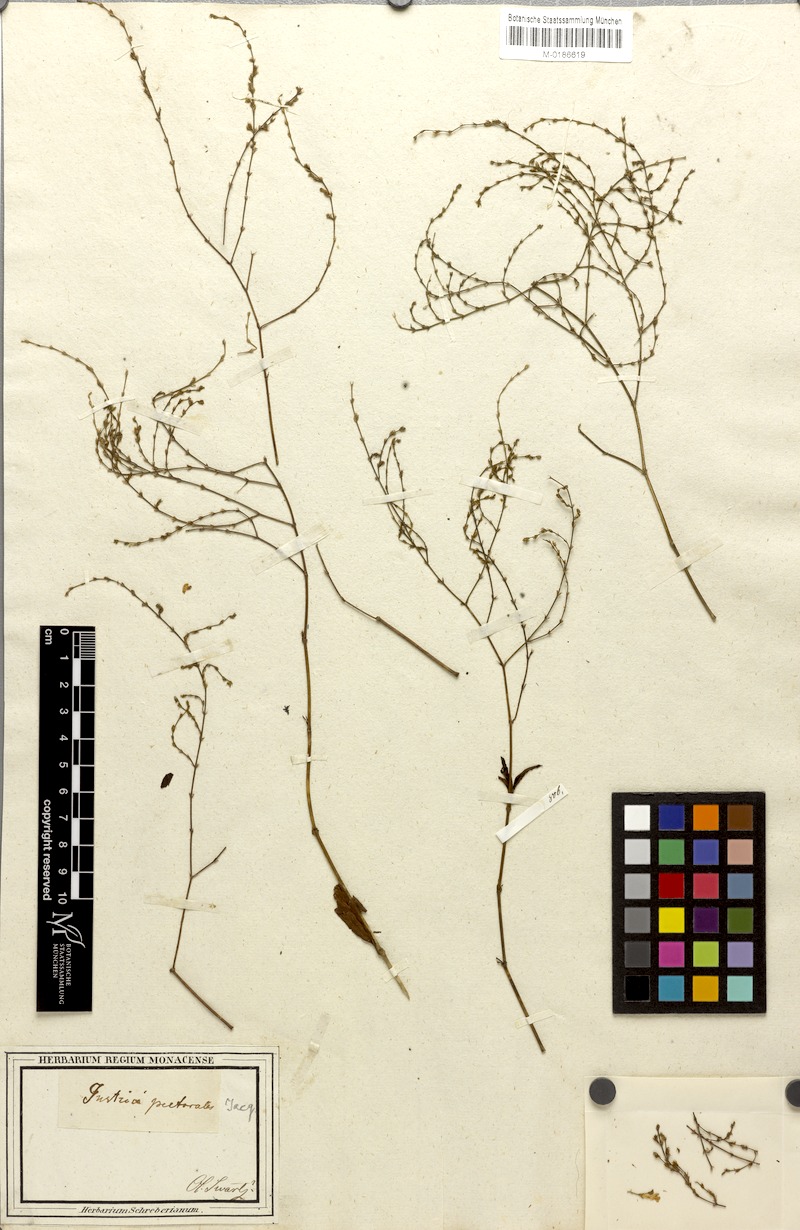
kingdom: Plantae
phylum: Tracheophyta
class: Magnoliopsida
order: Lamiales
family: Acanthaceae
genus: Dianthera
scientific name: Dianthera pectoralis
